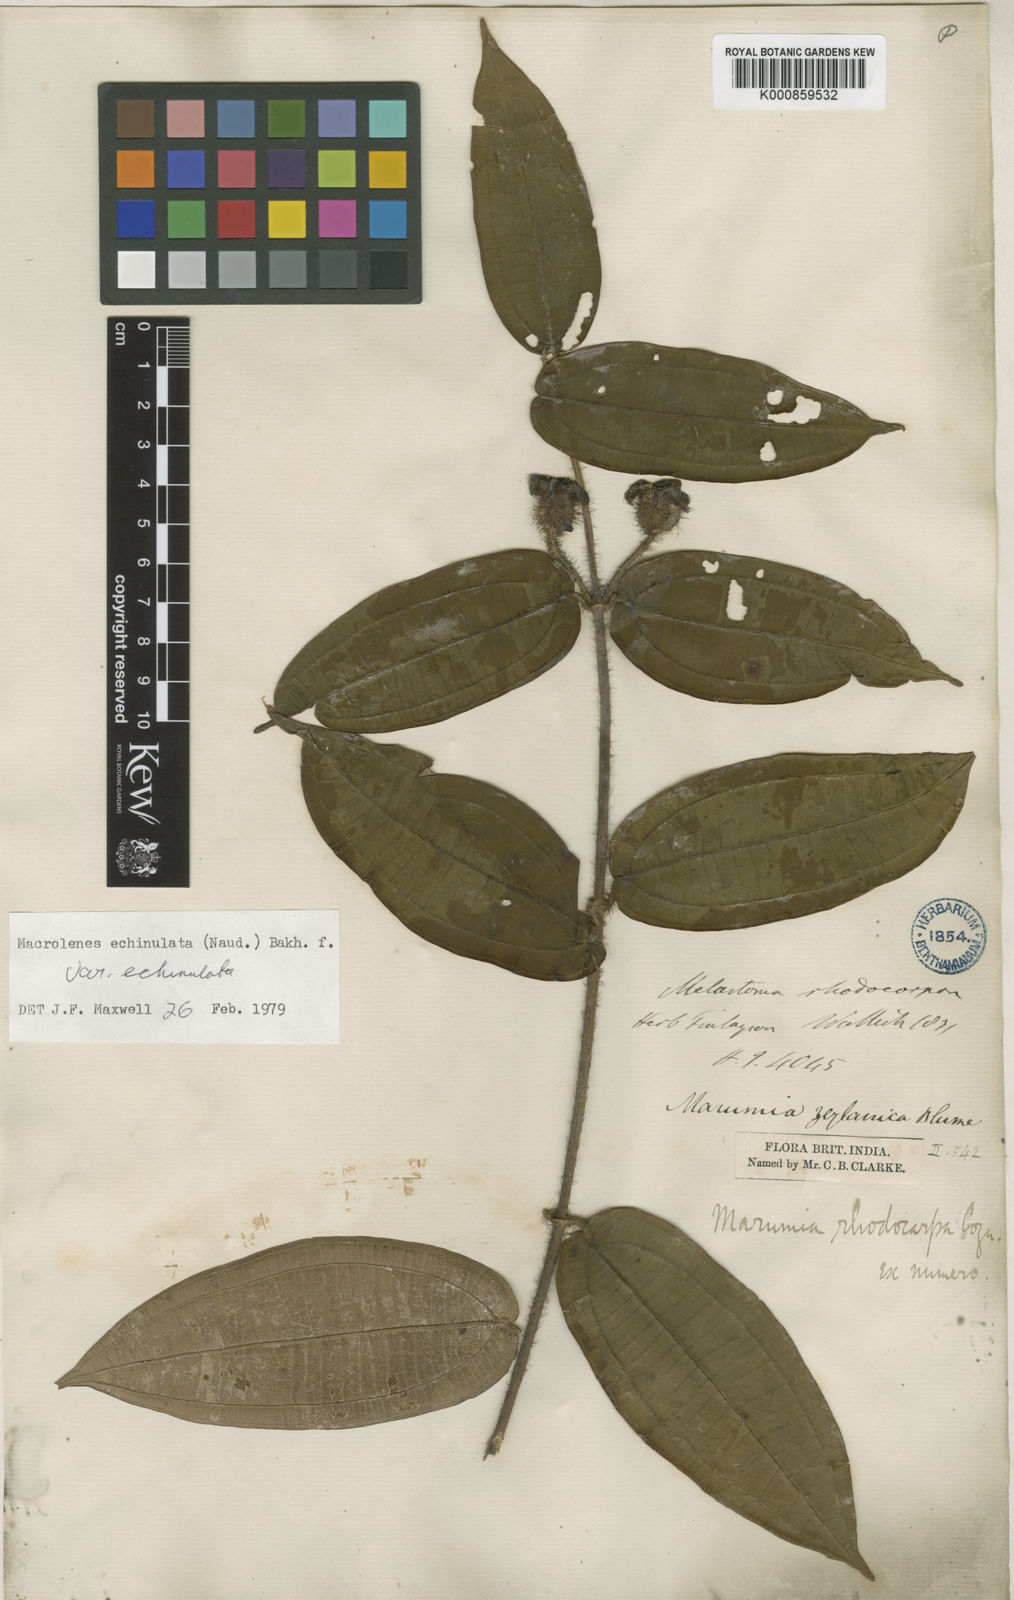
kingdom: Plantae
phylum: Tracheophyta
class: Magnoliopsida
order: Myrtales
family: Melastomataceae
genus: Macrolenes
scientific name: Macrolenes echinulata
